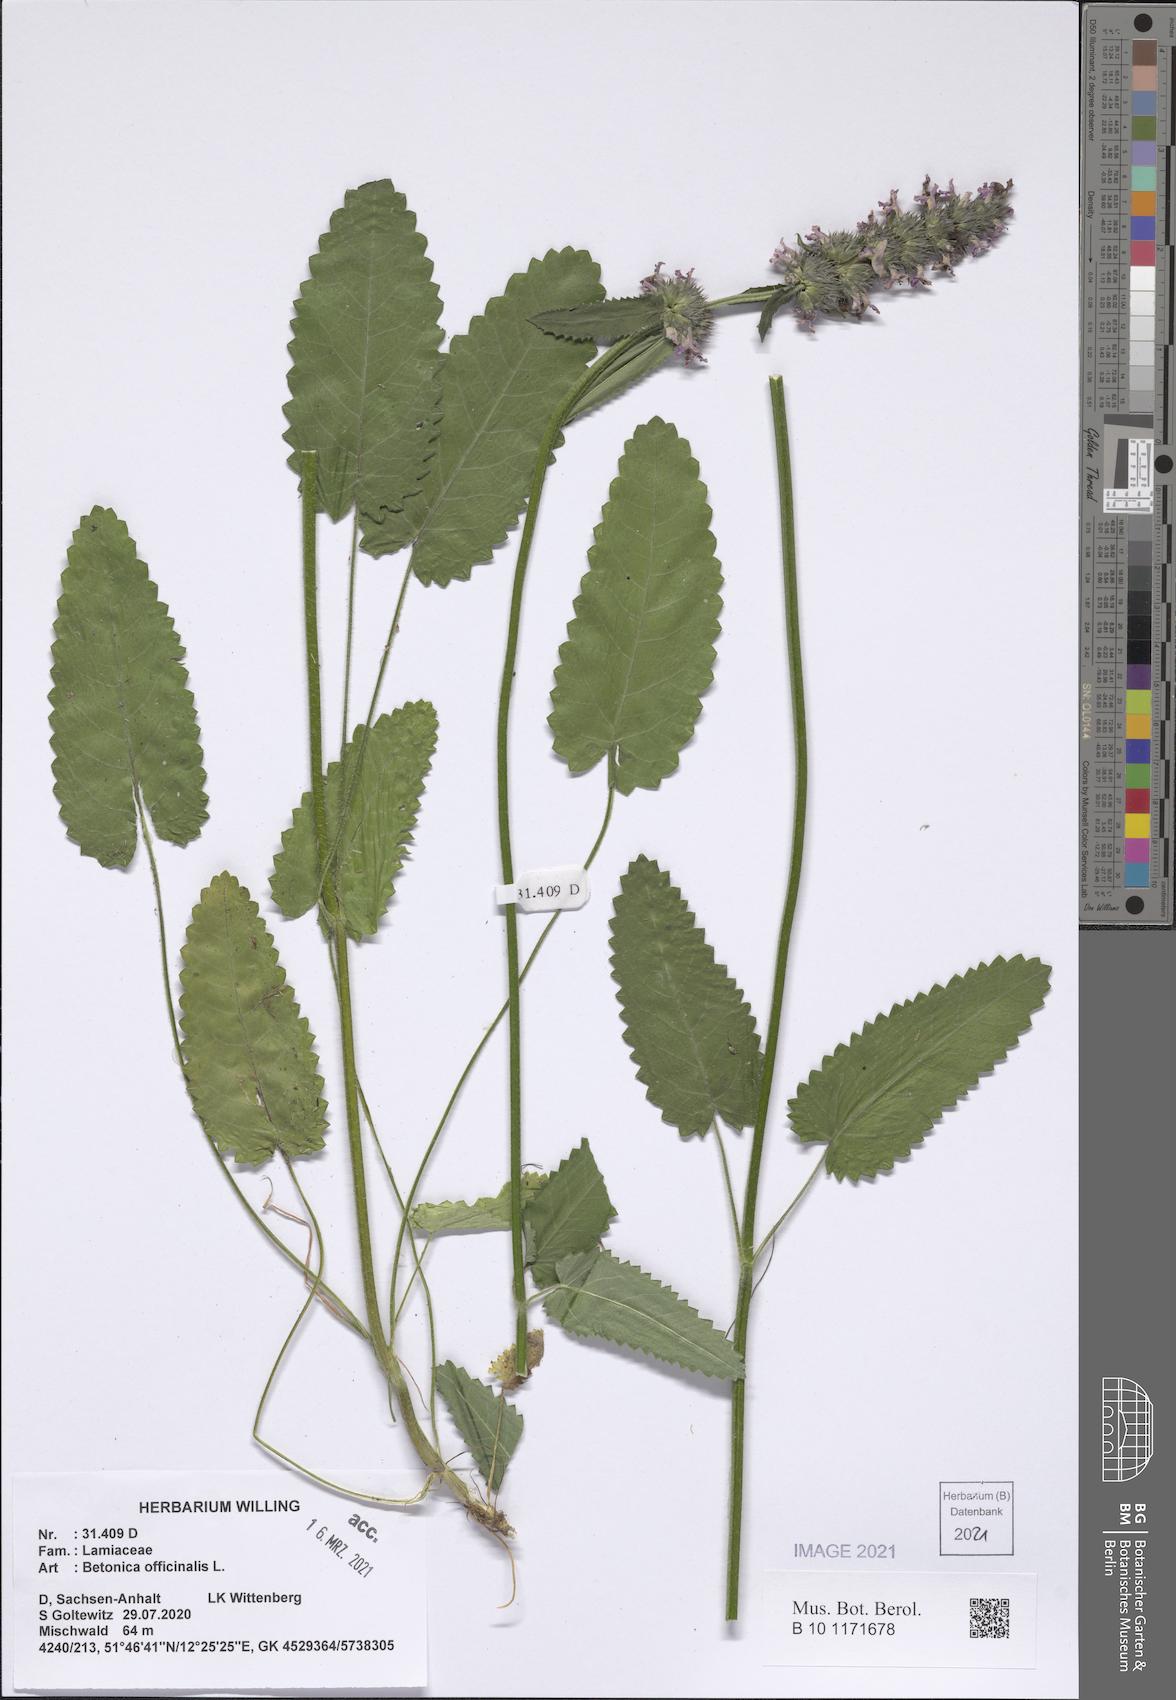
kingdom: Plantae
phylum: Tracheophyta
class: Magnoliopsida
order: Lamiales
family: Lamiaceae
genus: Betonica
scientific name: Betonica officinalis
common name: Bishop's-wort
